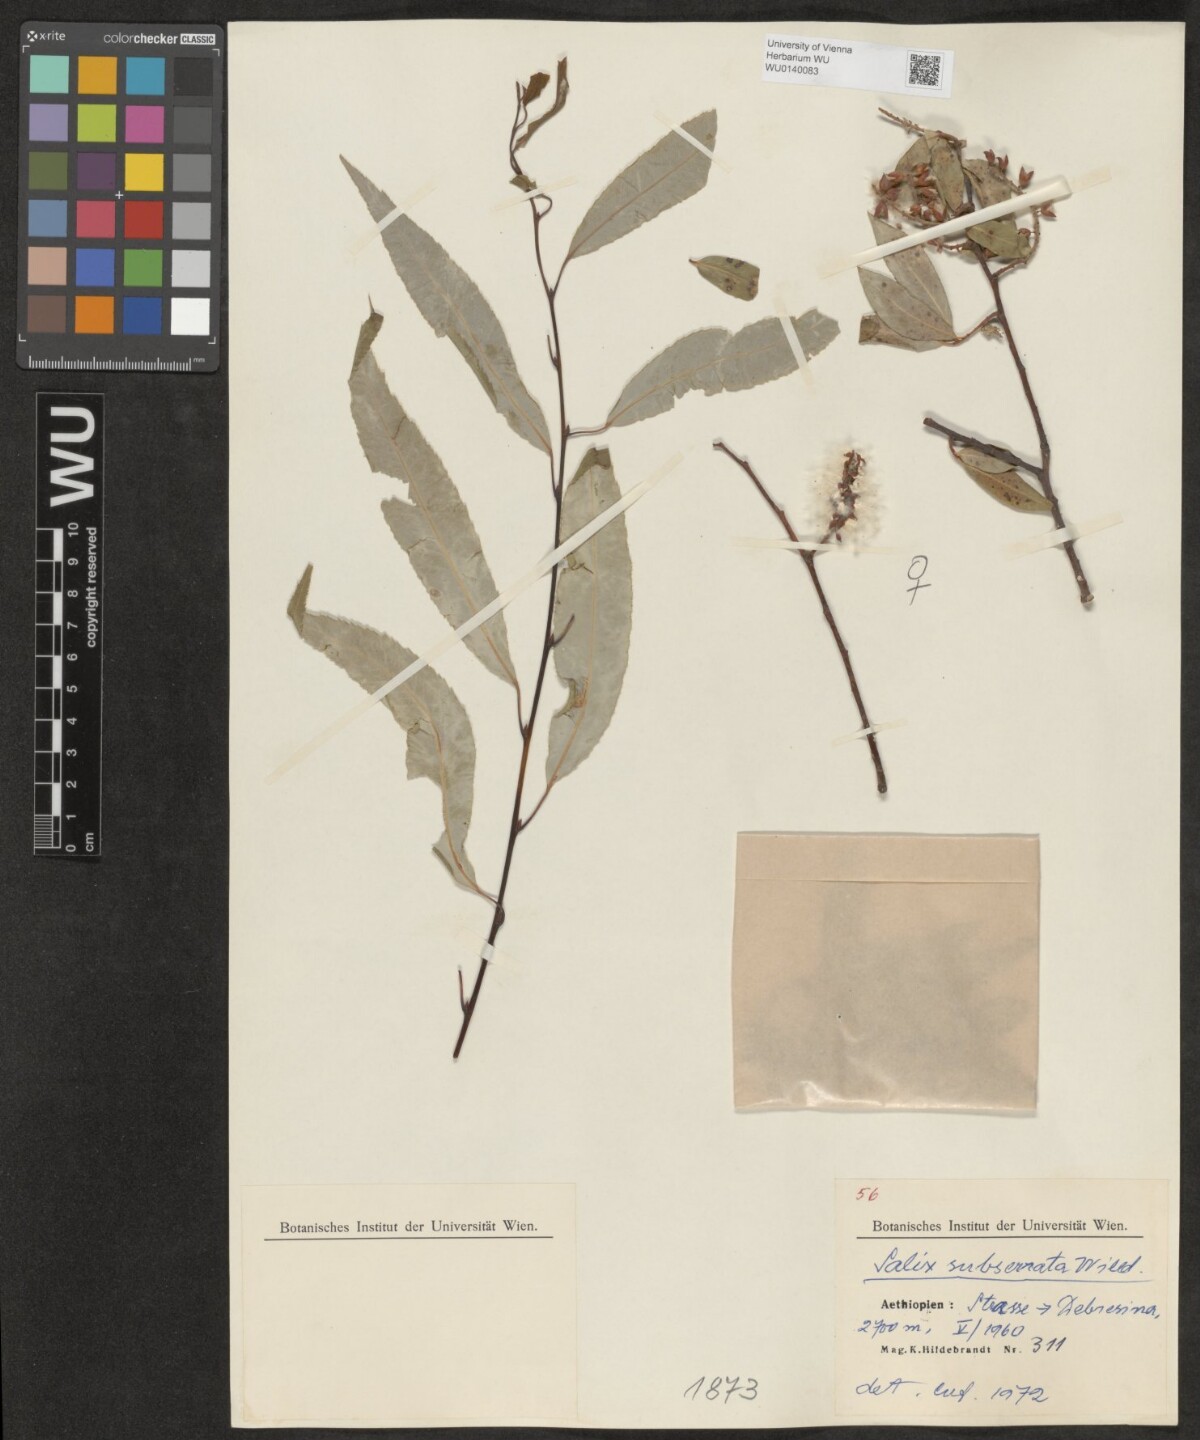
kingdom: Plantae
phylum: Tracheophyta
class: Magnoliopsida
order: Malpighiales
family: Salicaceae
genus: Salix
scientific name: Salix mucronata
